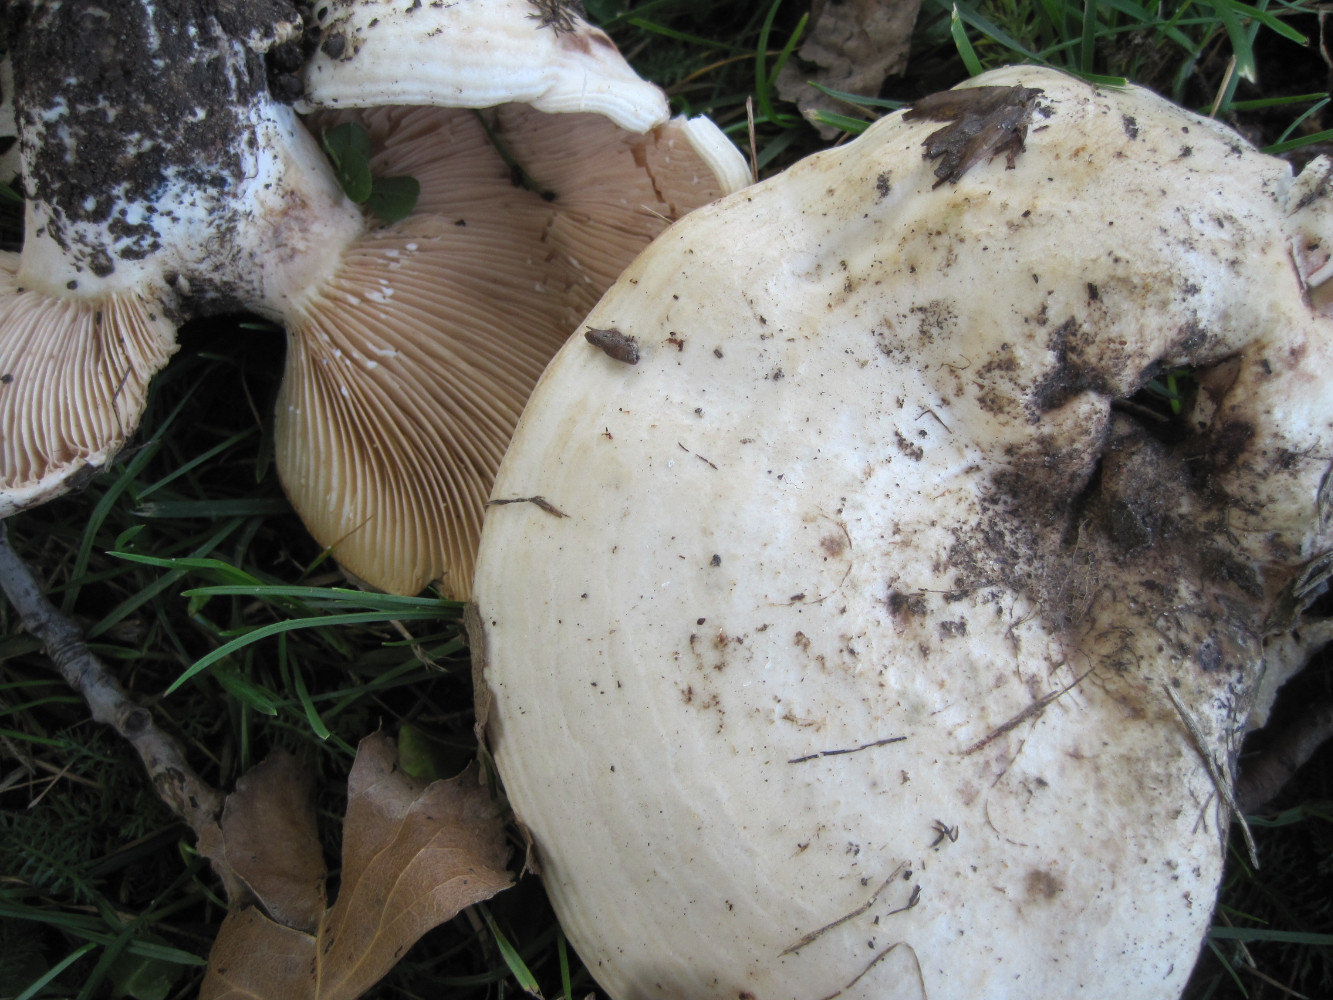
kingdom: Fungi
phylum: Basidiomycota
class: Agaricomycetes
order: Russulales
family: Russulaceae
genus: Lactarius
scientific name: Lactarius controversus
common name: rosabladet mælkehat
